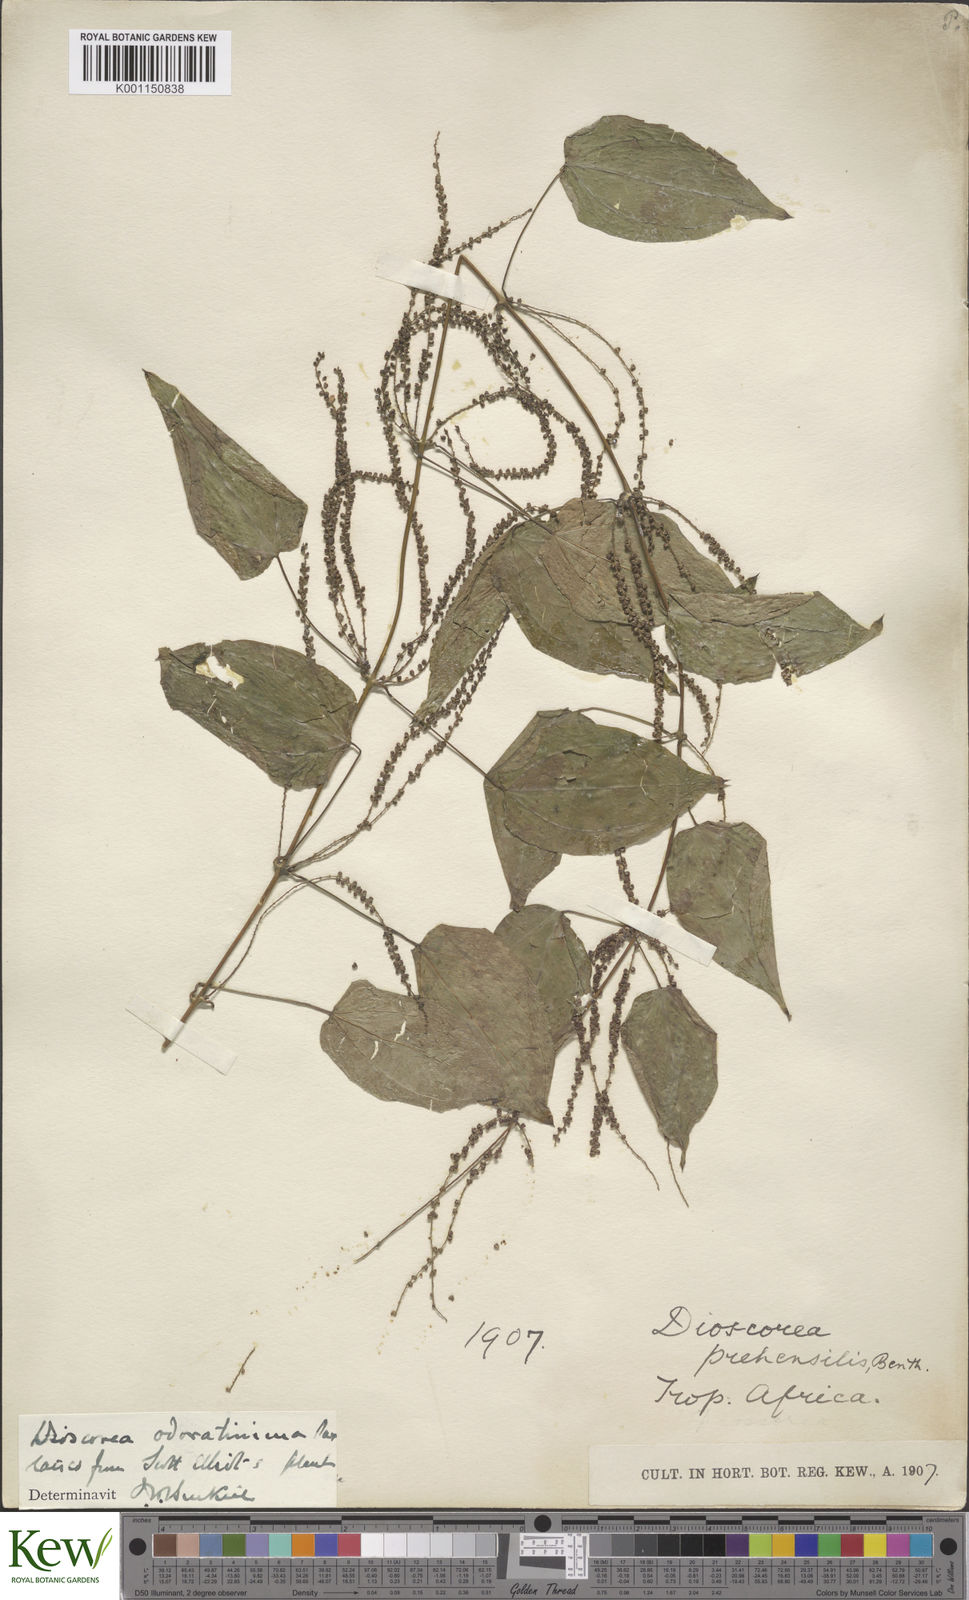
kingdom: Plantae
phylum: Tracheophyta
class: Liliopsida
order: Dioscoreales
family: Dioscoreaceae
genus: Dioscorea
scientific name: Dioscorea praehensilis
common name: Bush yam
